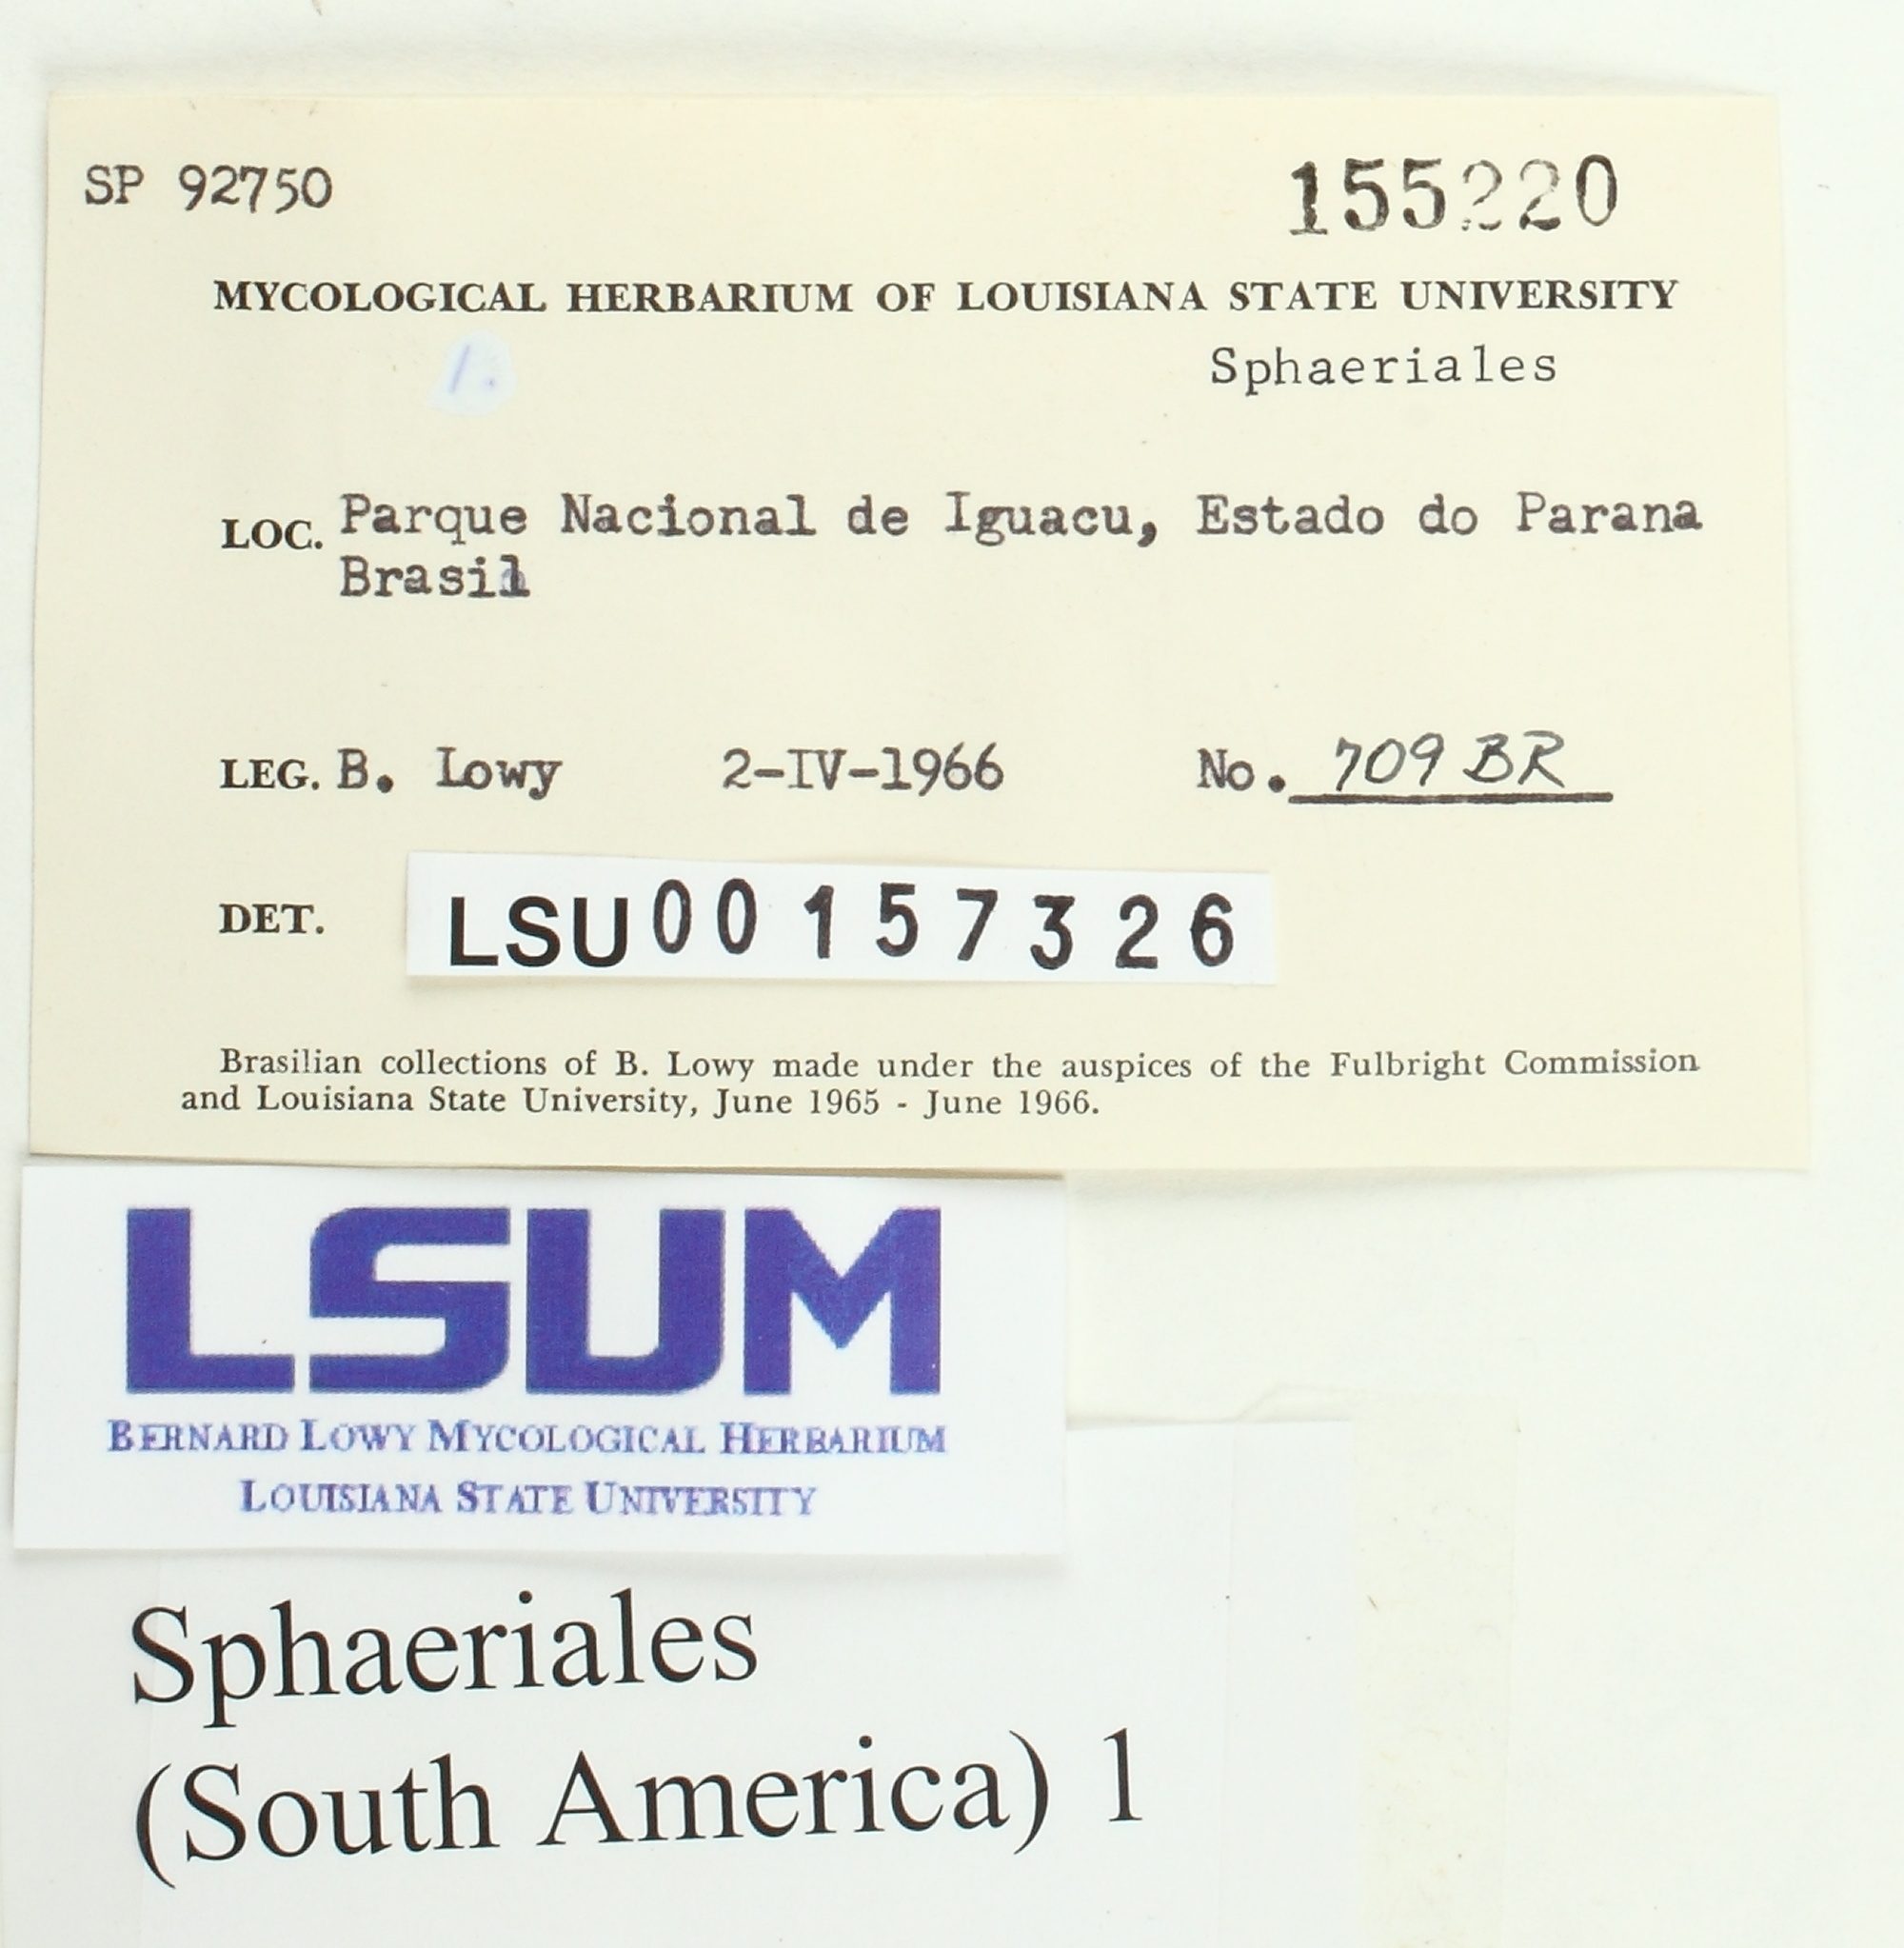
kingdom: Fungi
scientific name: Fungi
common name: Fungi
